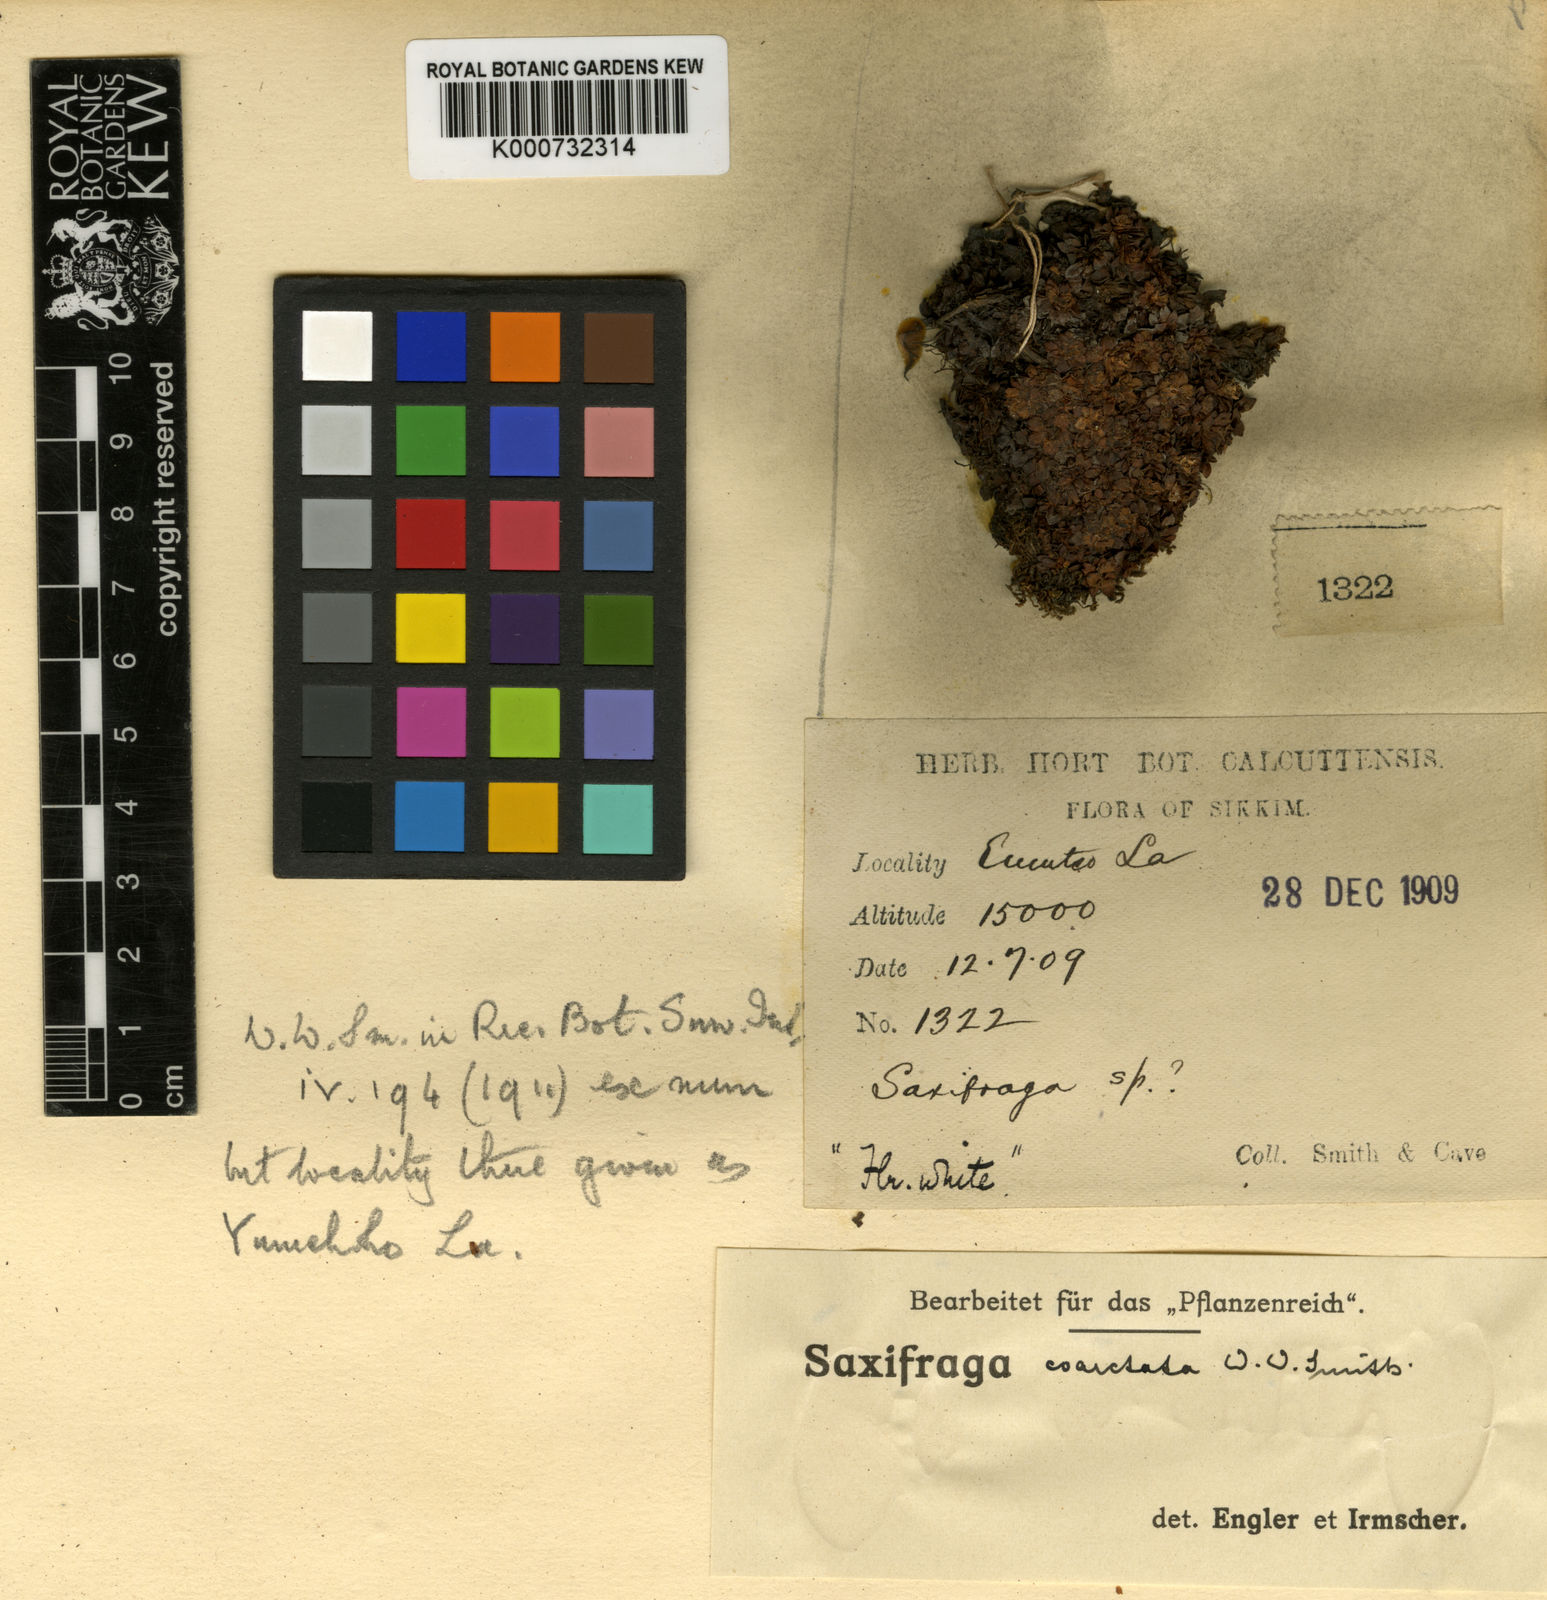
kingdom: Plantae
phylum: Tracheophyta
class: Magnoliopsida
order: Saxifragales
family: Saxifragaceae
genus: Saxifraga
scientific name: Saxifraga coarctata
